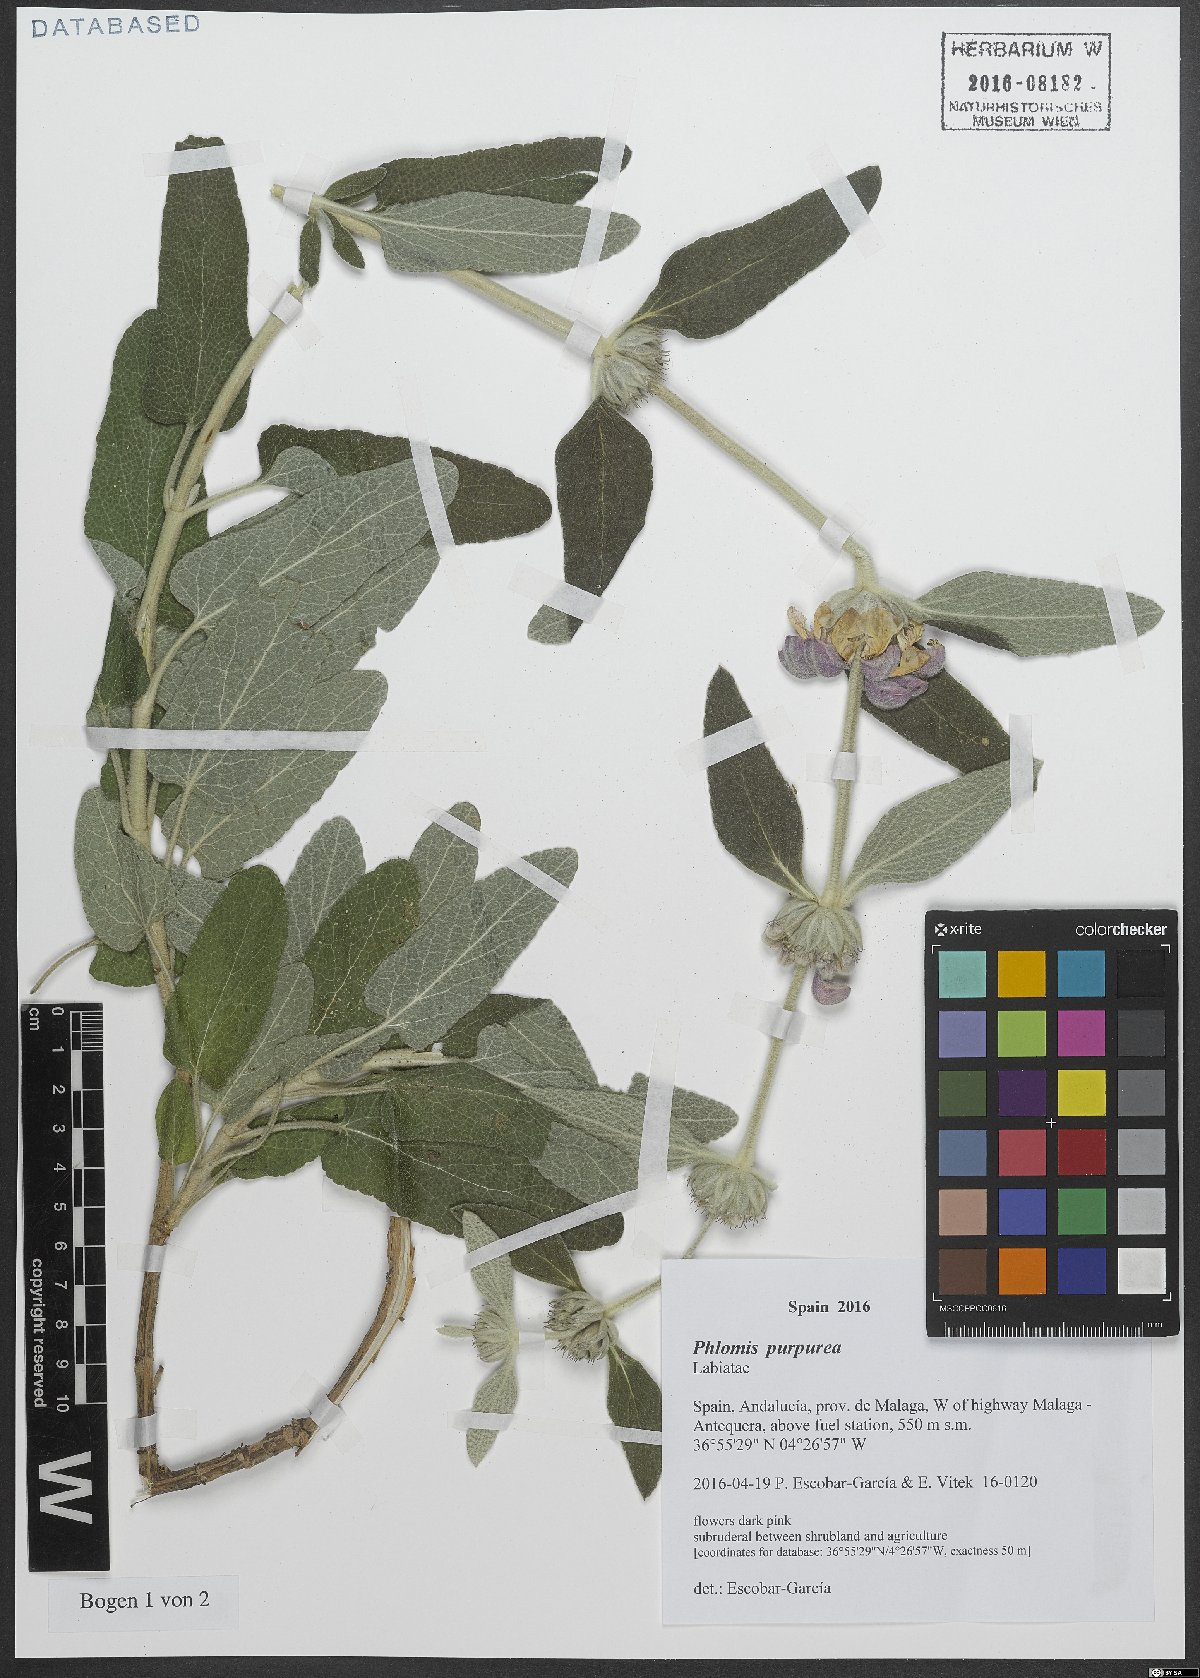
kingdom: Plantae
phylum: Tracheophyta
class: Magnoliopsida
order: Lamiales
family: Lamiaceae
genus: Phlomis
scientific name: Phlomis purpurea
